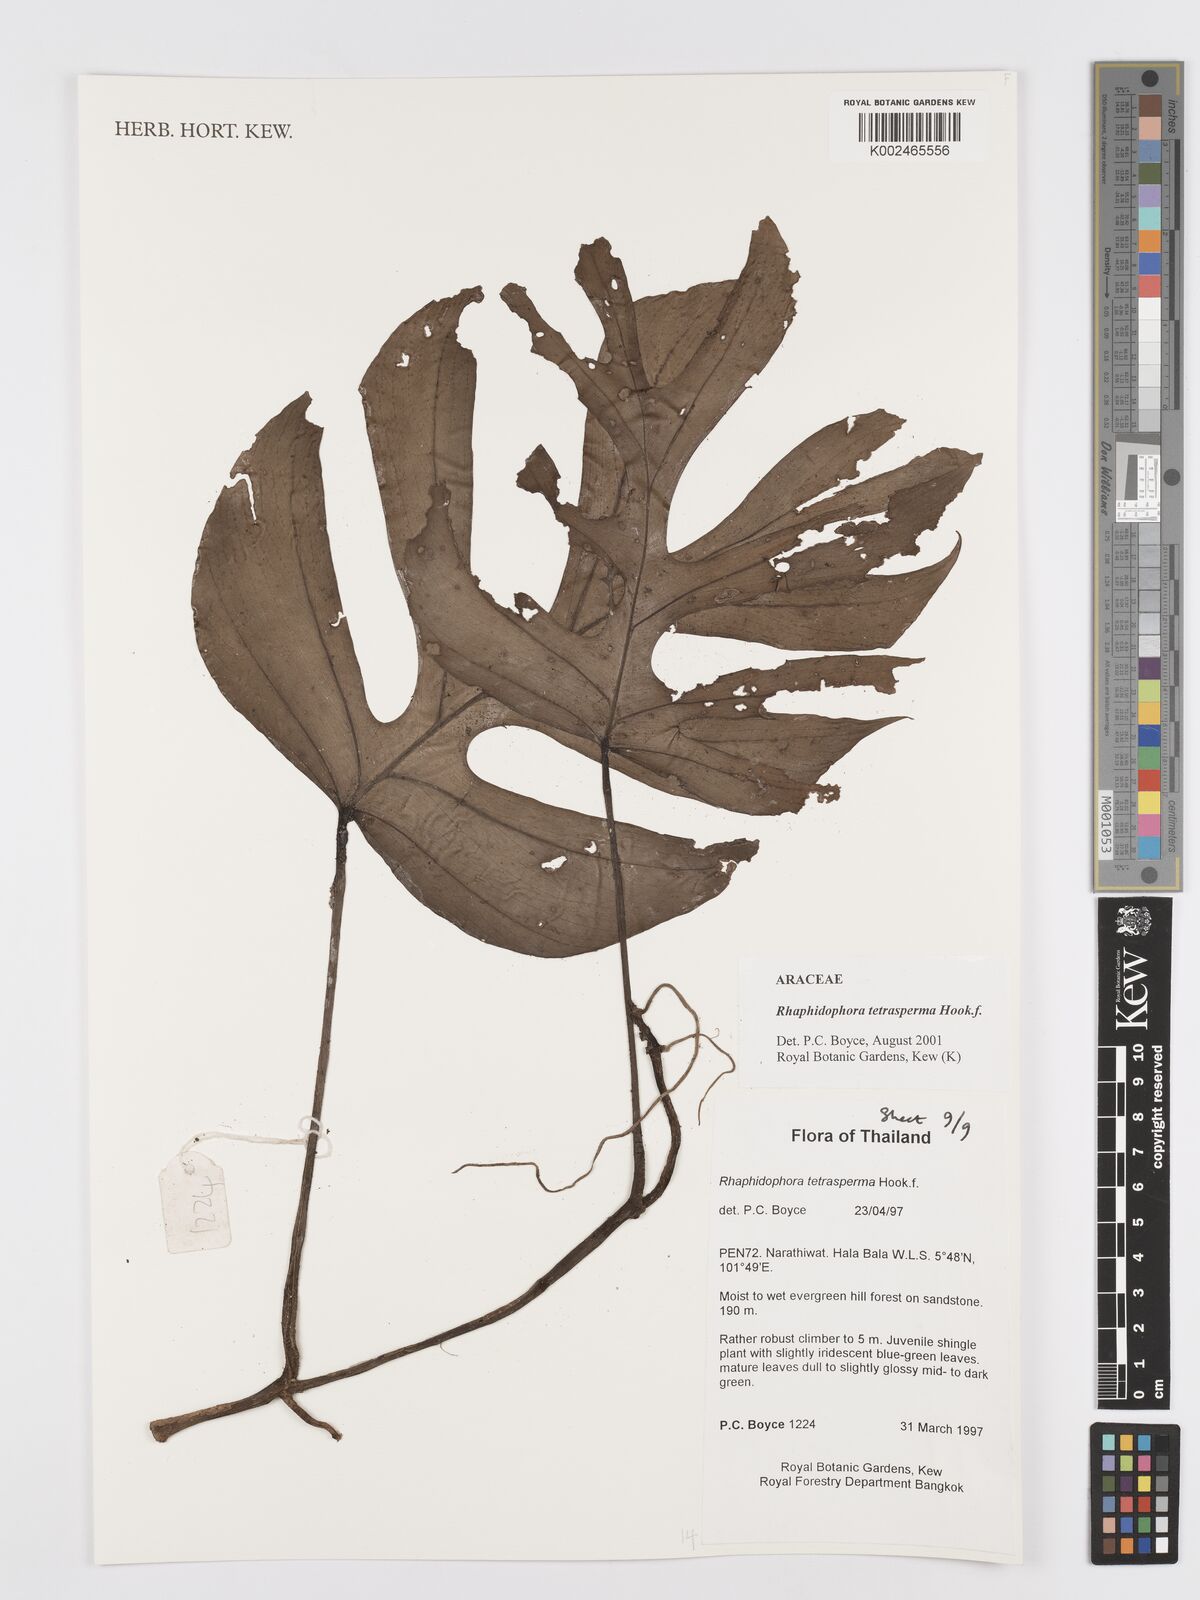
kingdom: Plantae
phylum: Tracheophyta
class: Liliopsida
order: Alismatales
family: Araceae
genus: Rhaphidophora
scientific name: Rhaphidophora tetrasperma
